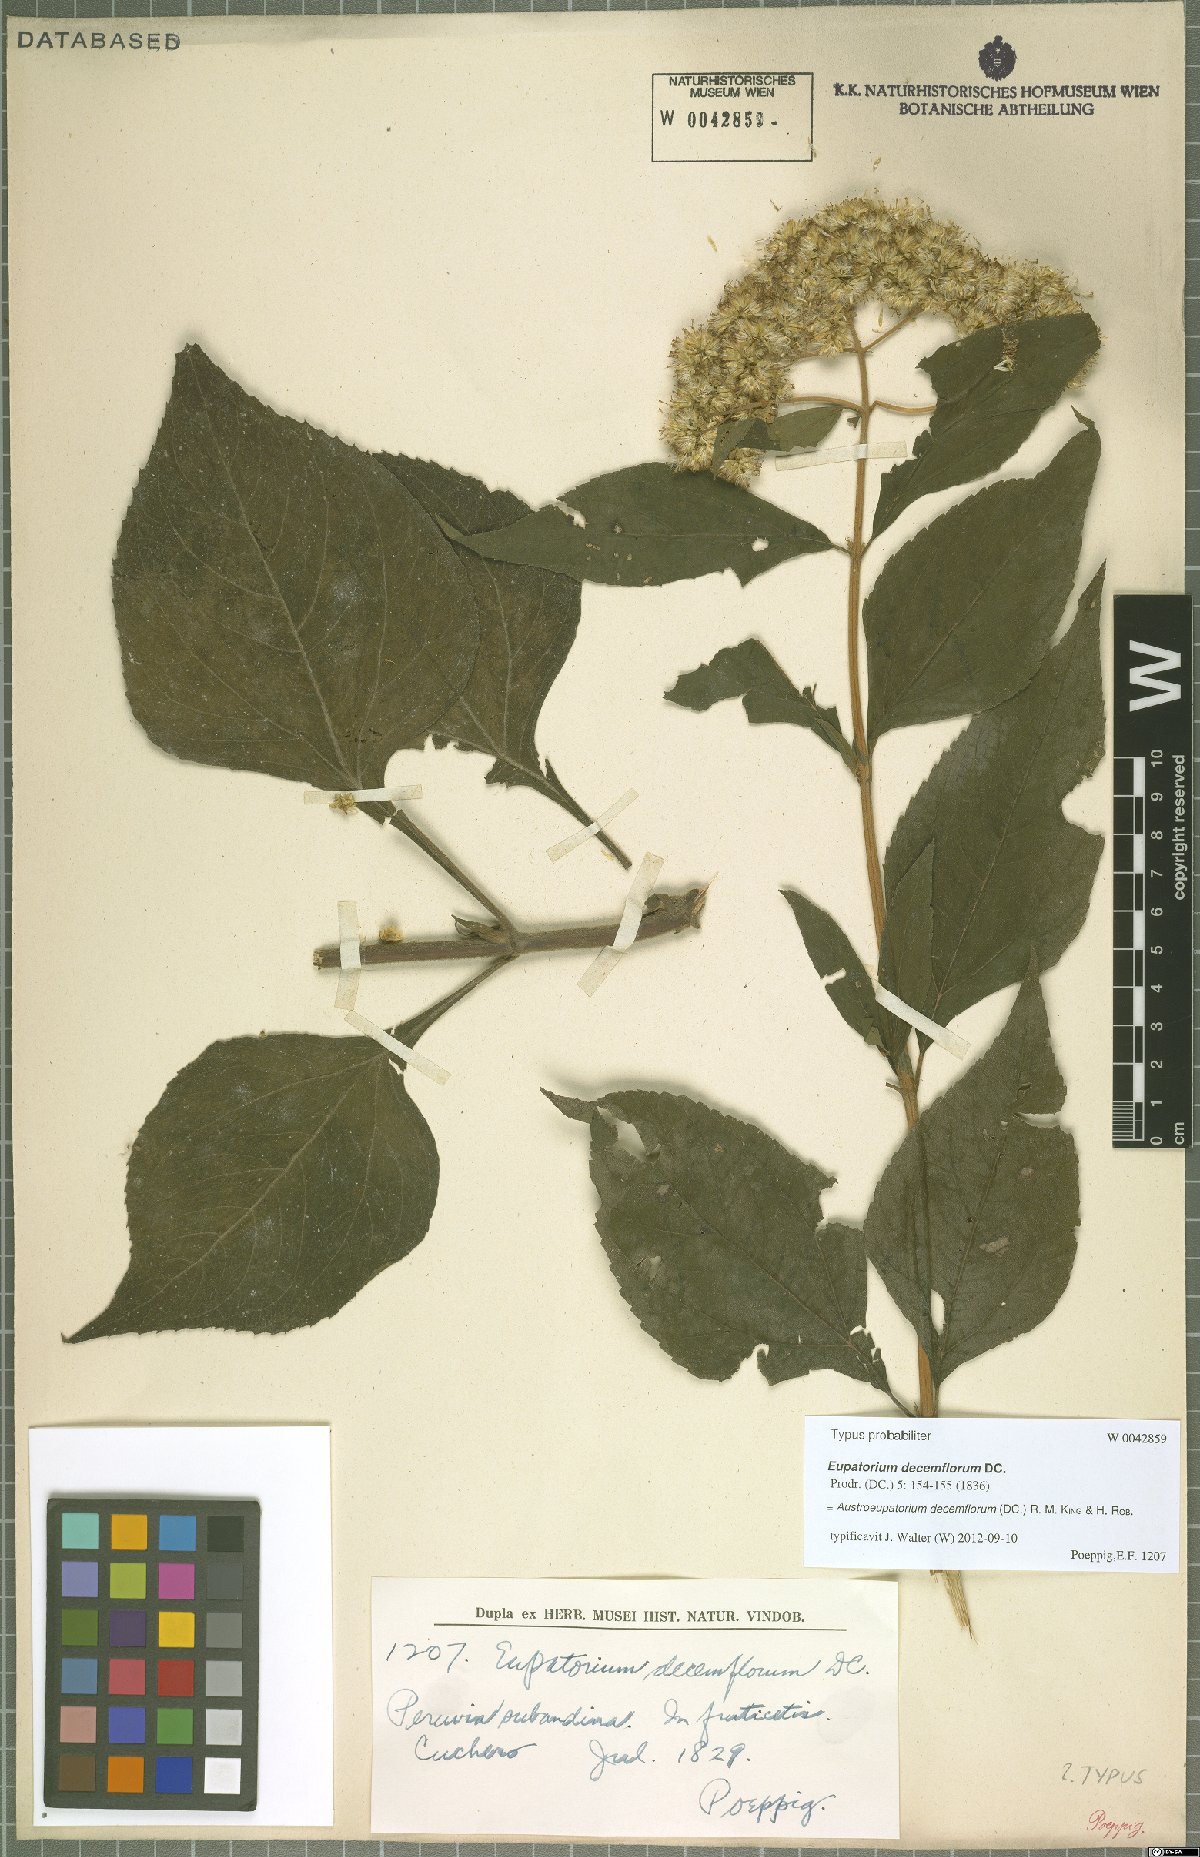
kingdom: Plantae
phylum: Tracheophyta
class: Magnoliopsida
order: Asterales
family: Asteraceae
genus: Austroeupatorium
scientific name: Austroeupatorium decemflorum
